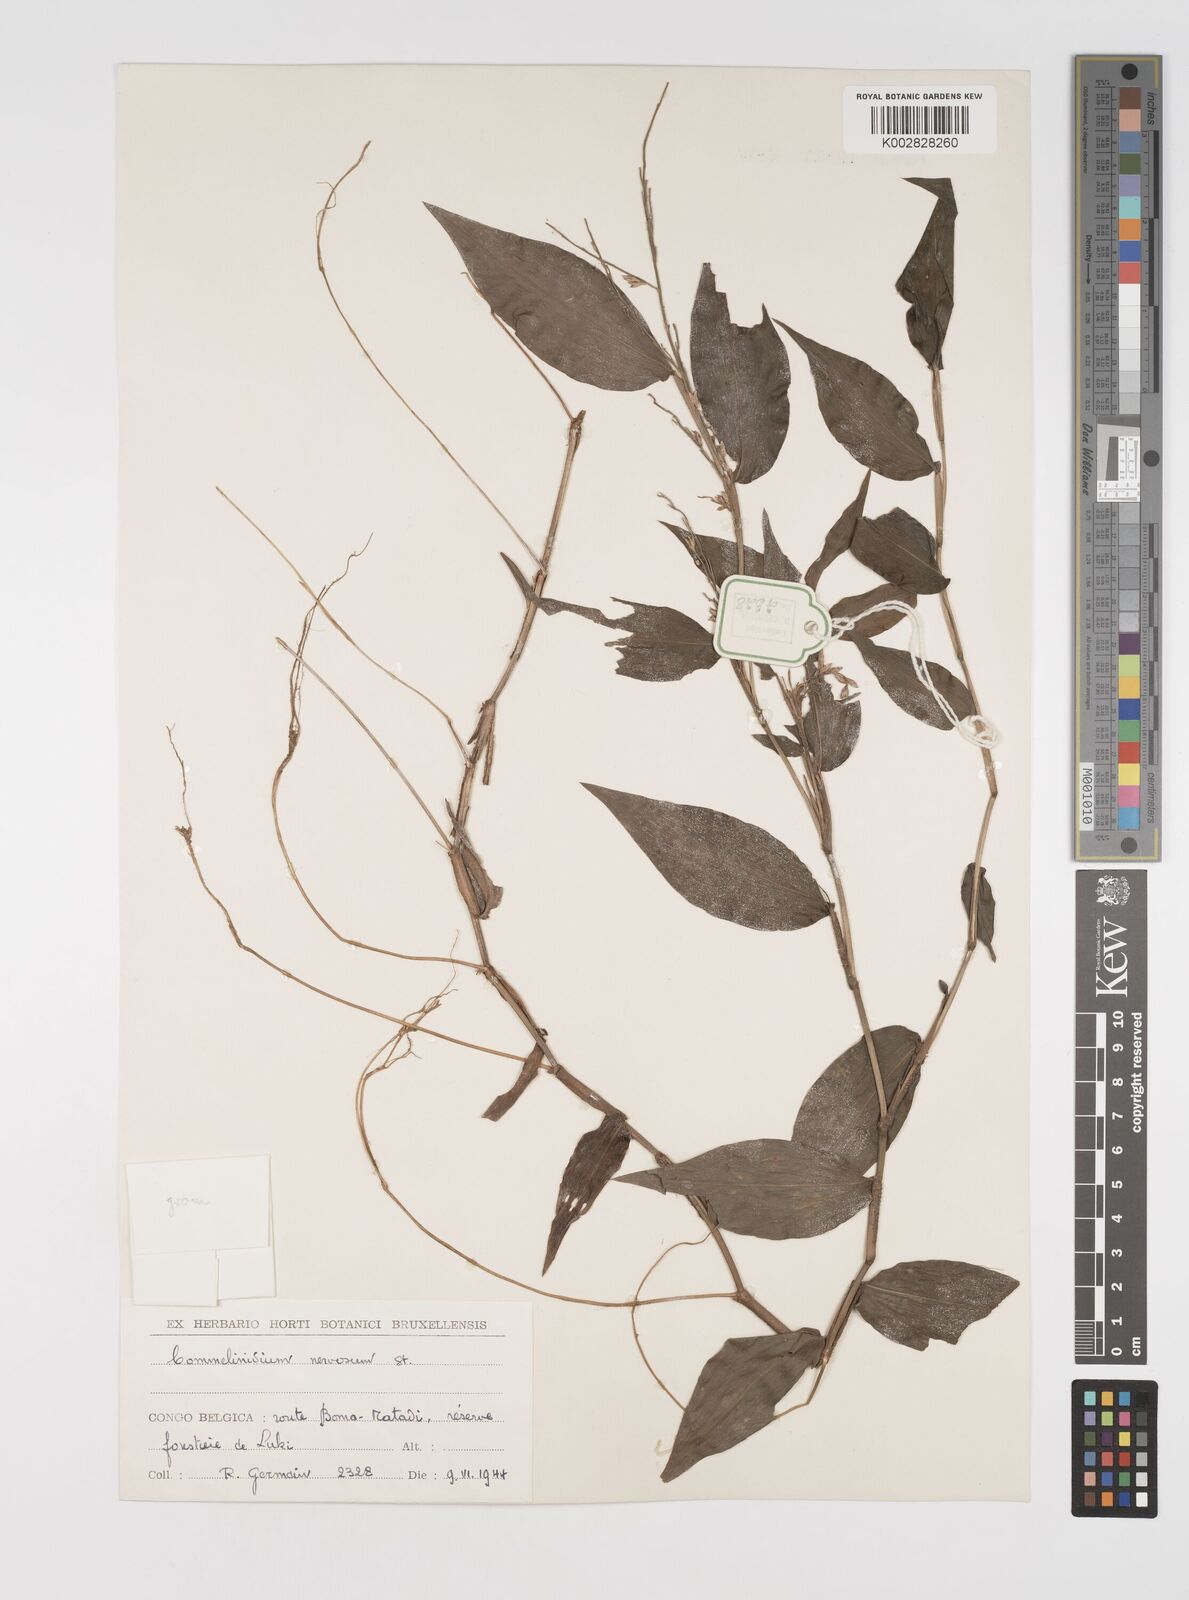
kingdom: Plantae
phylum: Tracheophyta
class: Liliopsida
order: Poales
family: Poaceae
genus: Acroceras
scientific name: Acroceras gabunense
